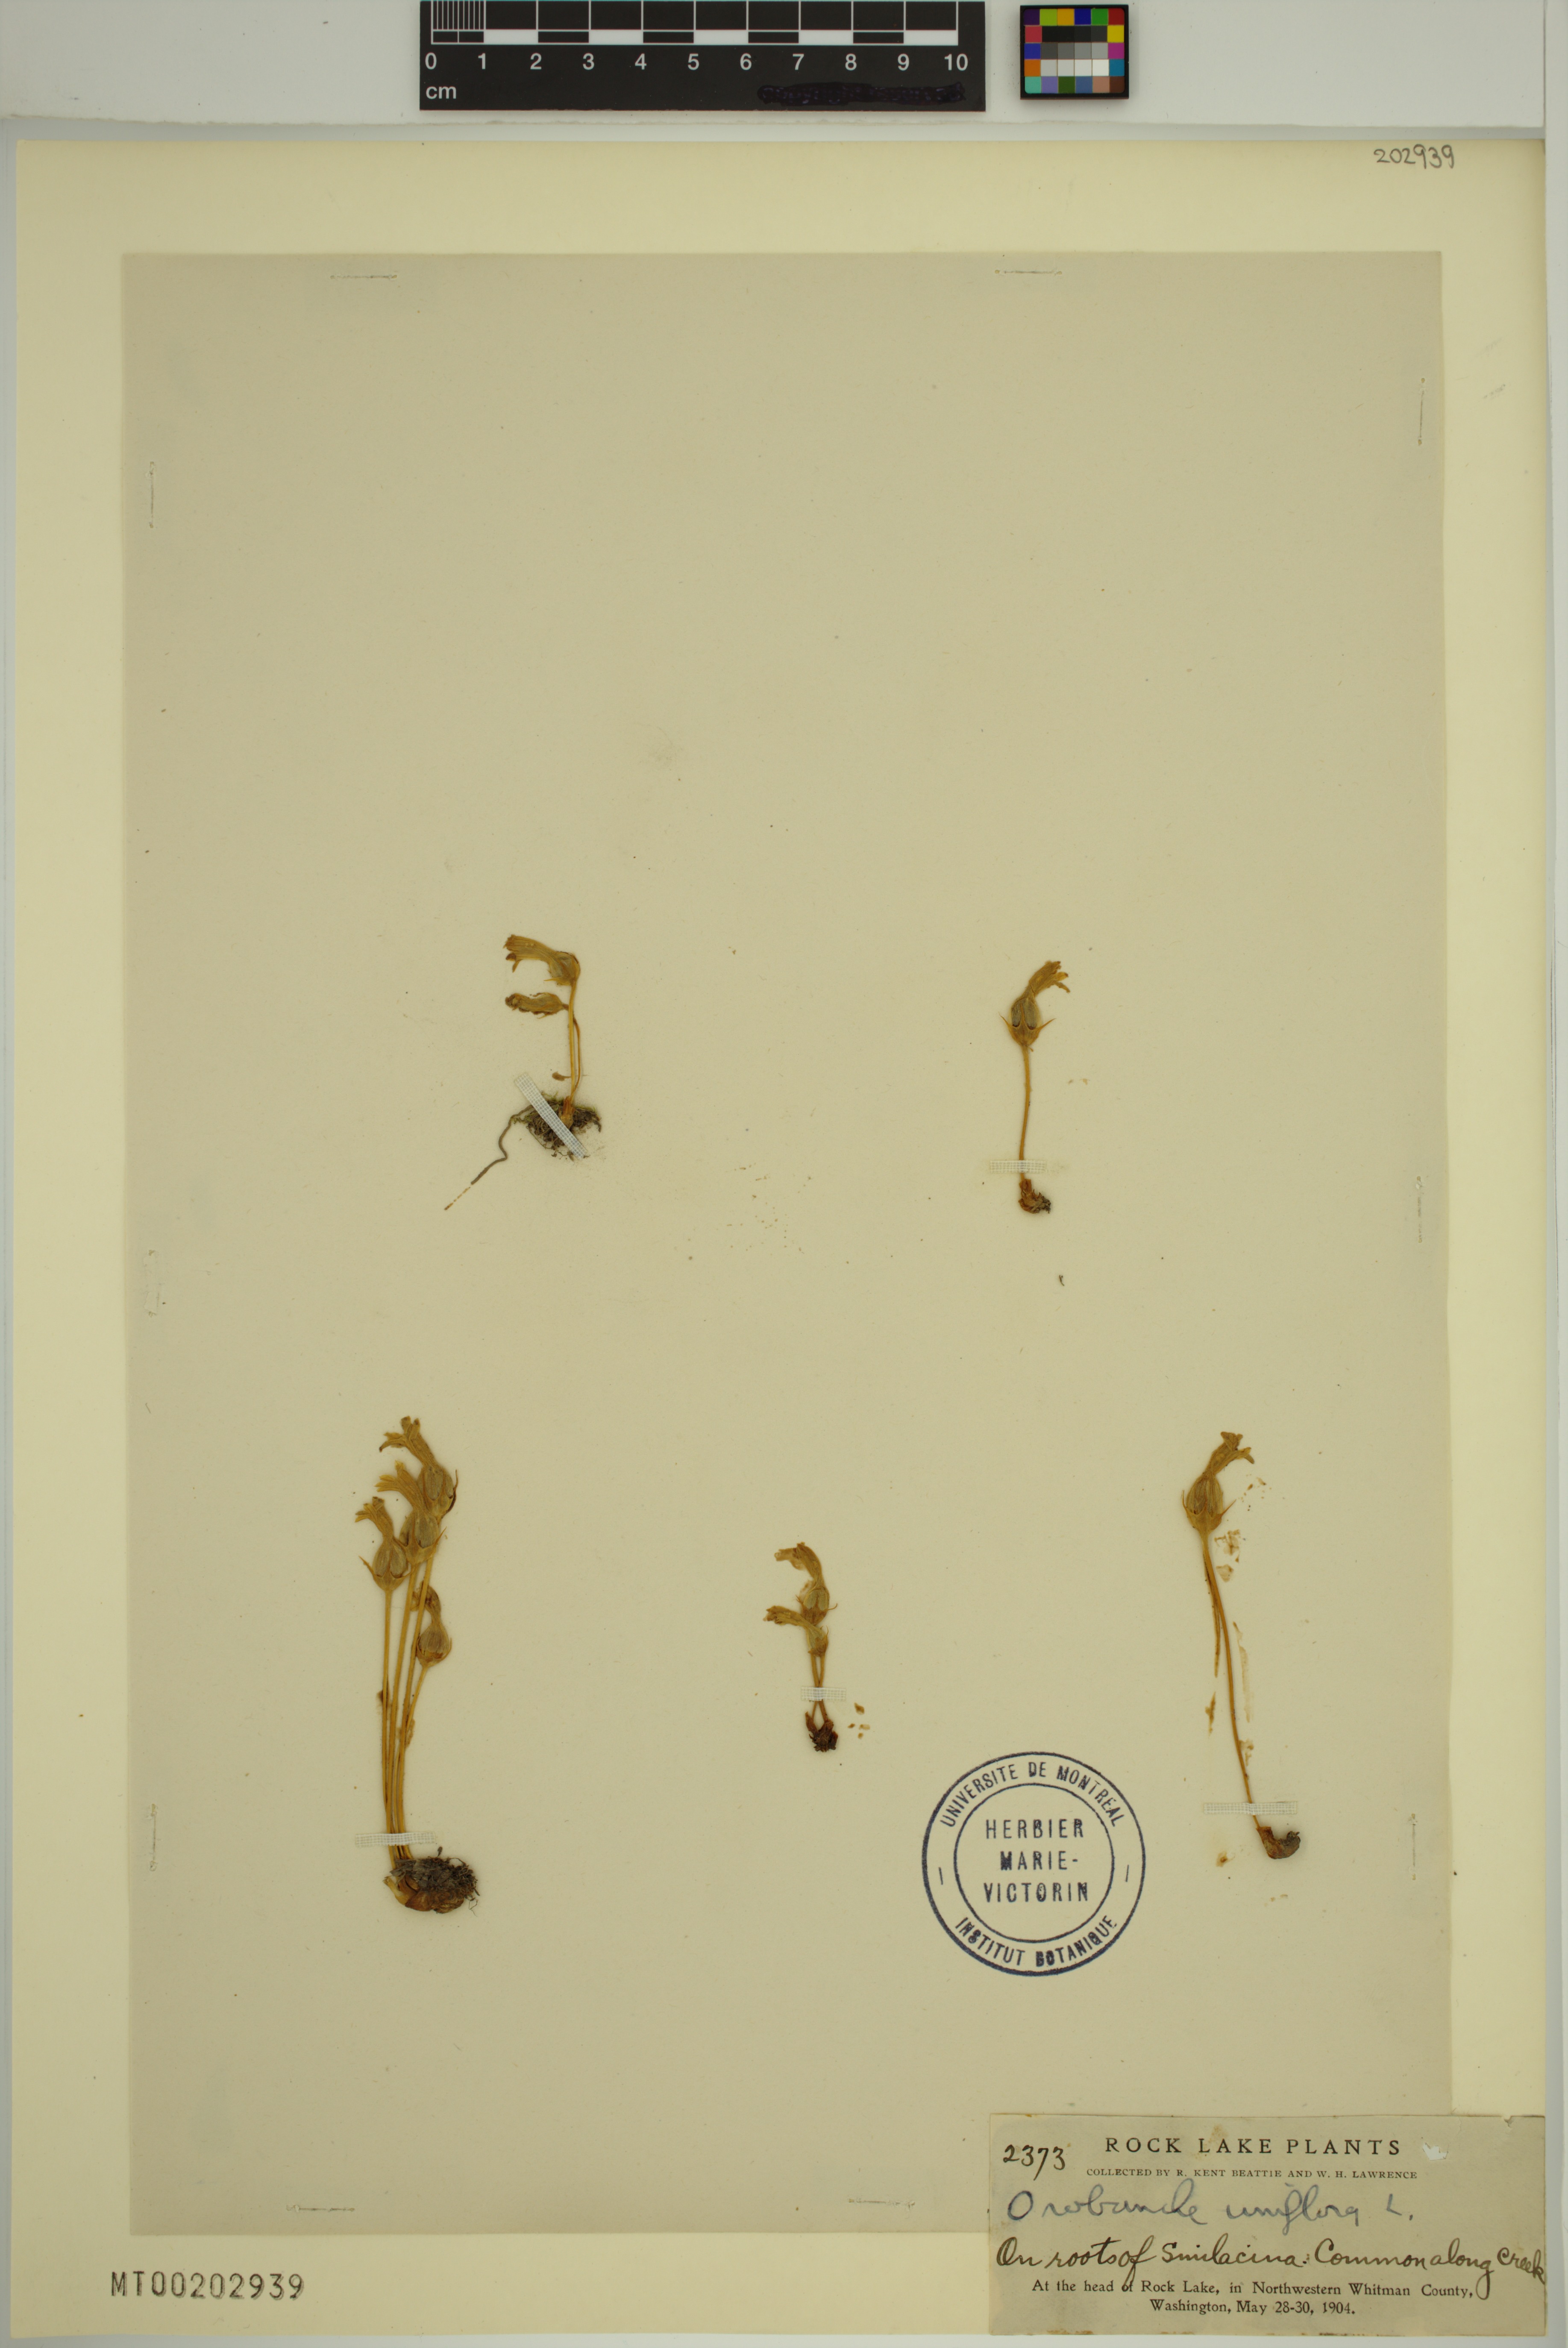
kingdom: Plantae
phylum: Tracheophyta
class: Magnoliopsida
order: Lamiales
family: Orobanchaceae
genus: Aphyllon
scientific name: Aphyllon uniflorum
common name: One-flowered broomrape
